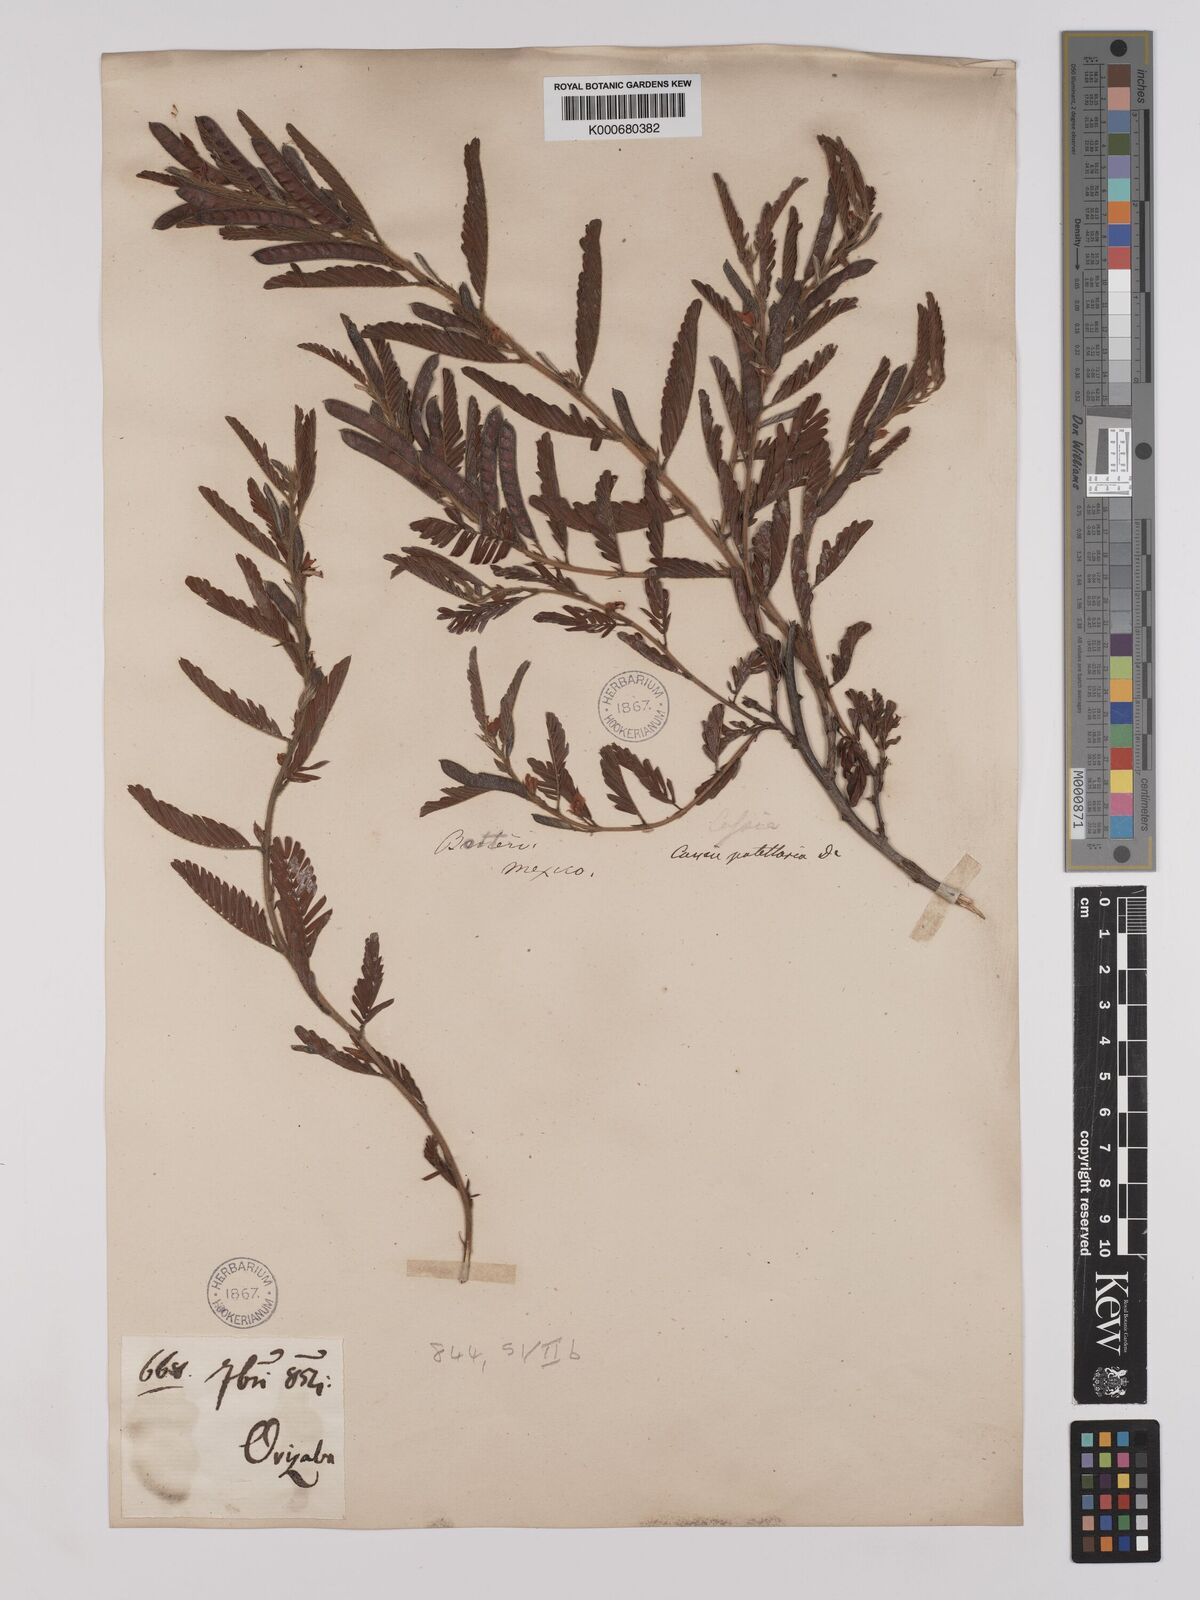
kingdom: Plantae
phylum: Tracheophyta
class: Magnoliopsida
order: Fabales
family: Fabaceae
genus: Chamaecrista
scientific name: Chamaecrista nictitans
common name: Sensitive cassia
